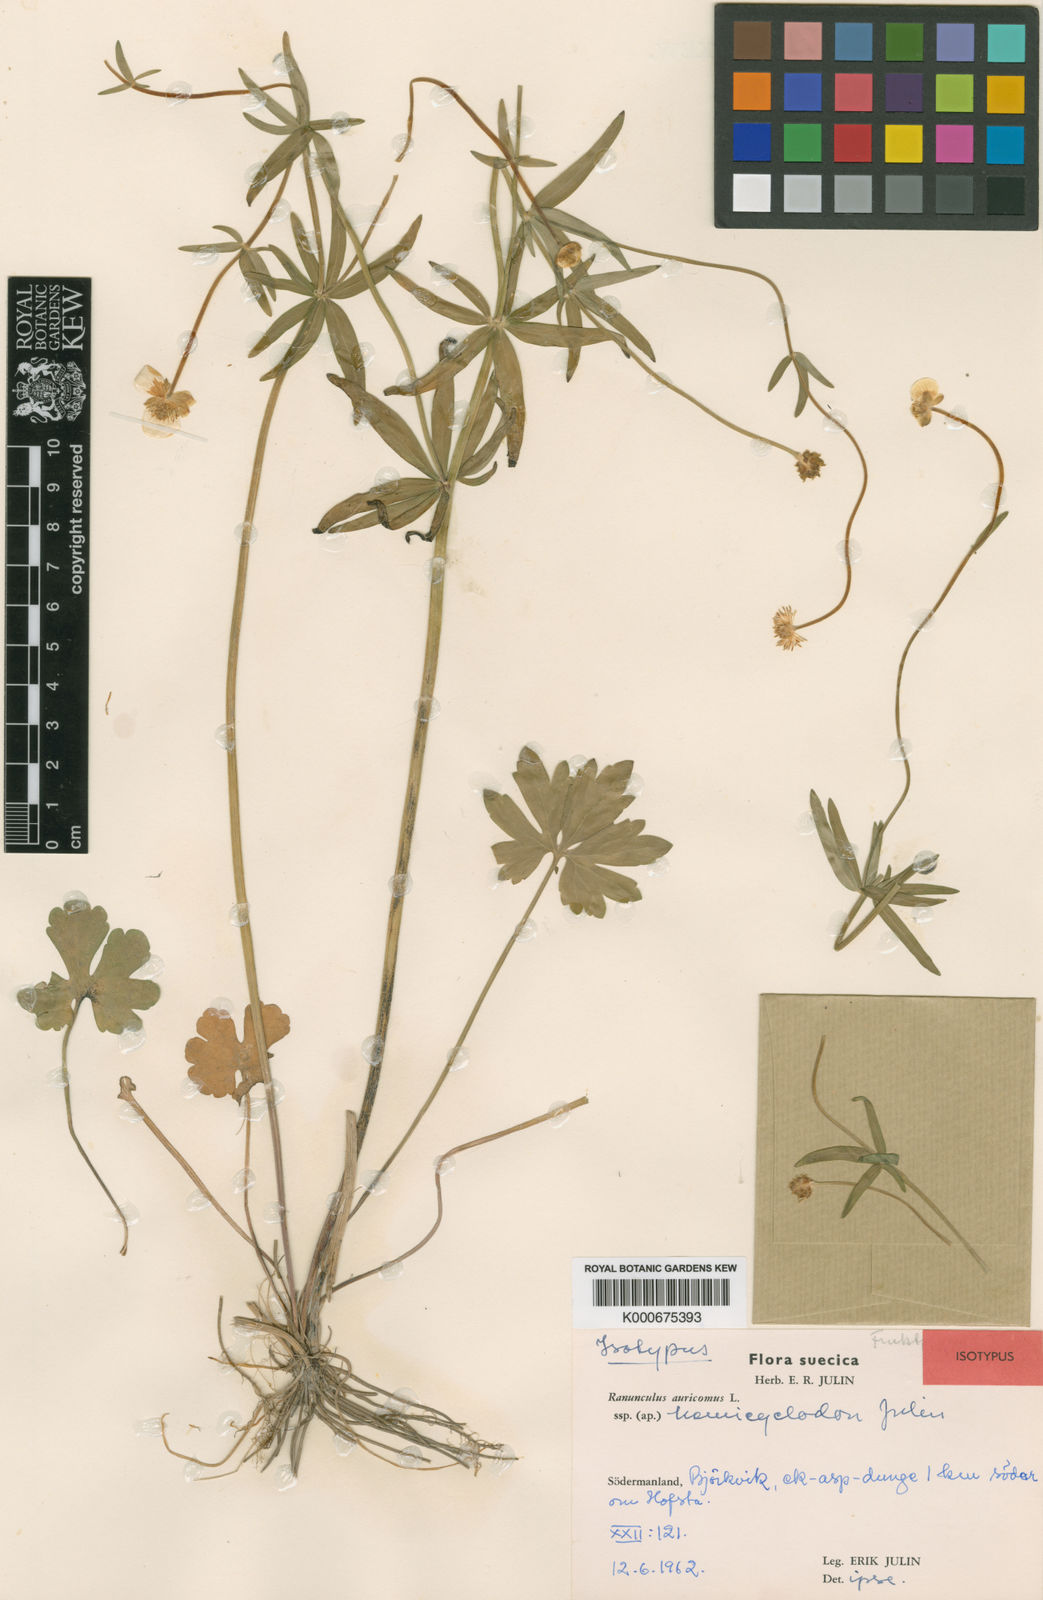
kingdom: Plantae
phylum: Tracheophyta
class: Magnoliopsida
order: Ranunculales
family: Ranunculaceae
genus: Ranunculus
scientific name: Ranunculus auricomus
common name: Goldilocks buttercup
